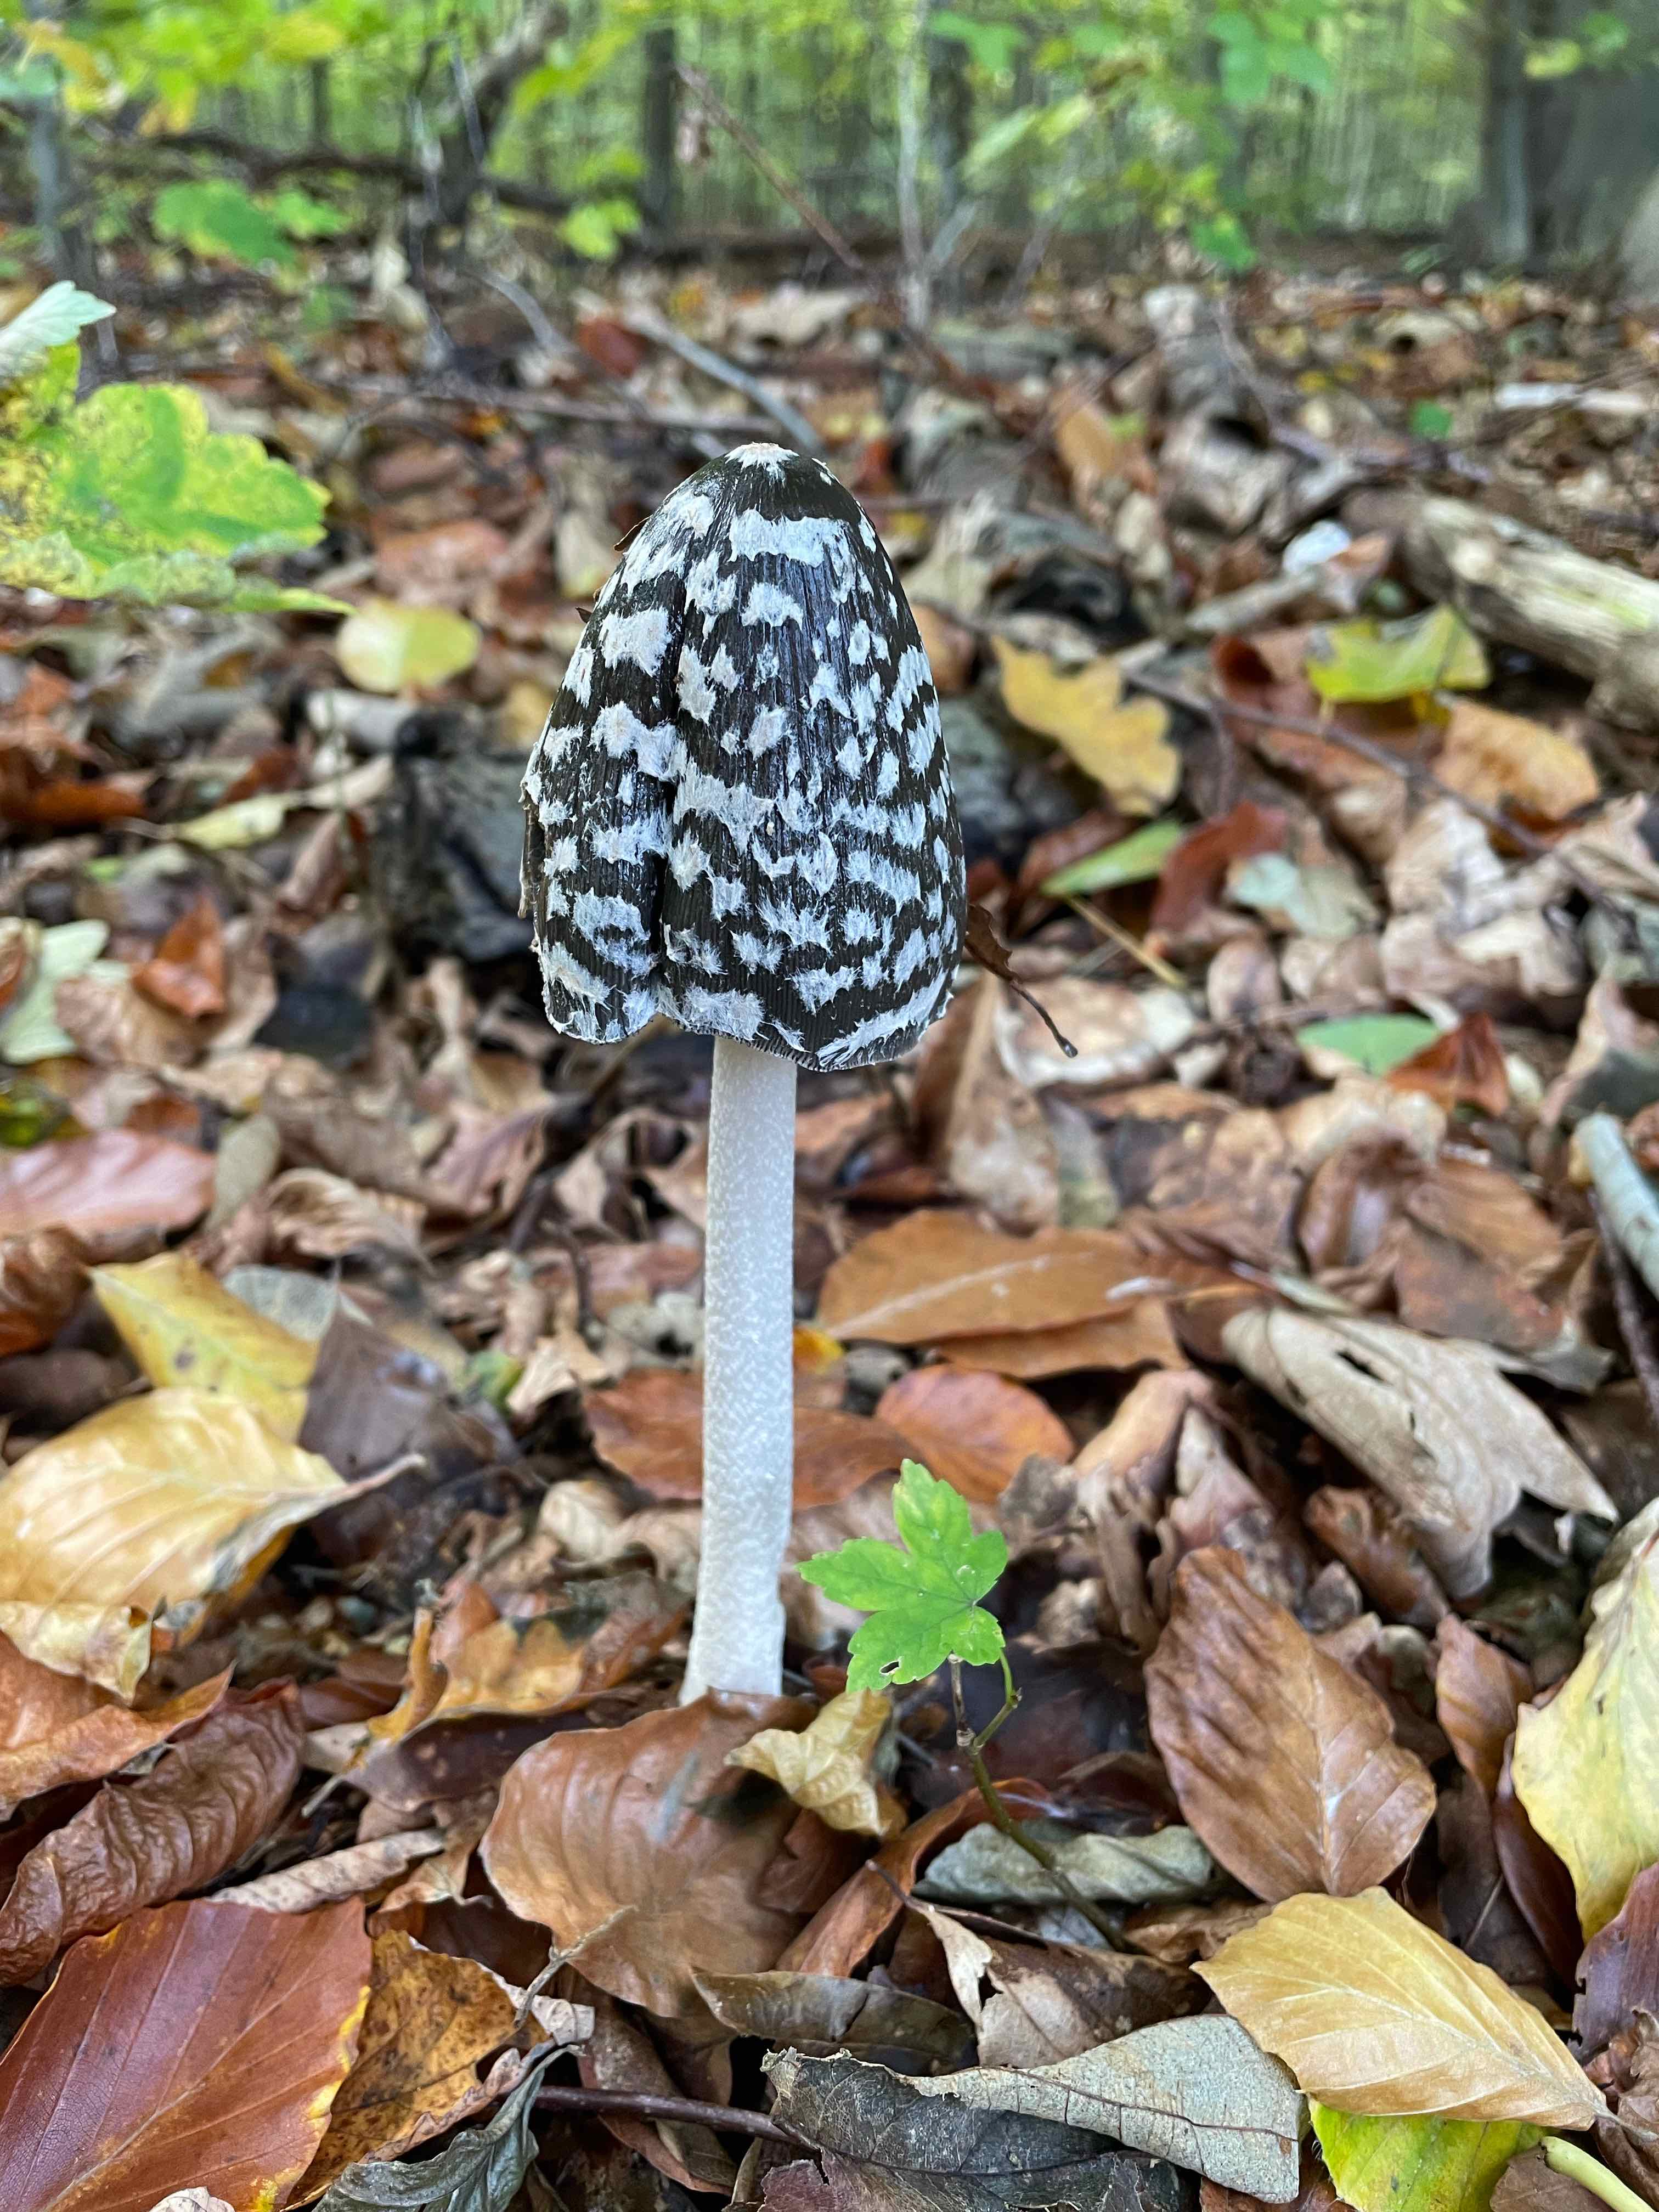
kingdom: Fungi
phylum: Basidiomycota
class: Agaricomycetes
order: Agaricales
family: Psathyrellaceae
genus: Coprinopsis
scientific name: Coprinopsis picacea
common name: skade-blækhat
